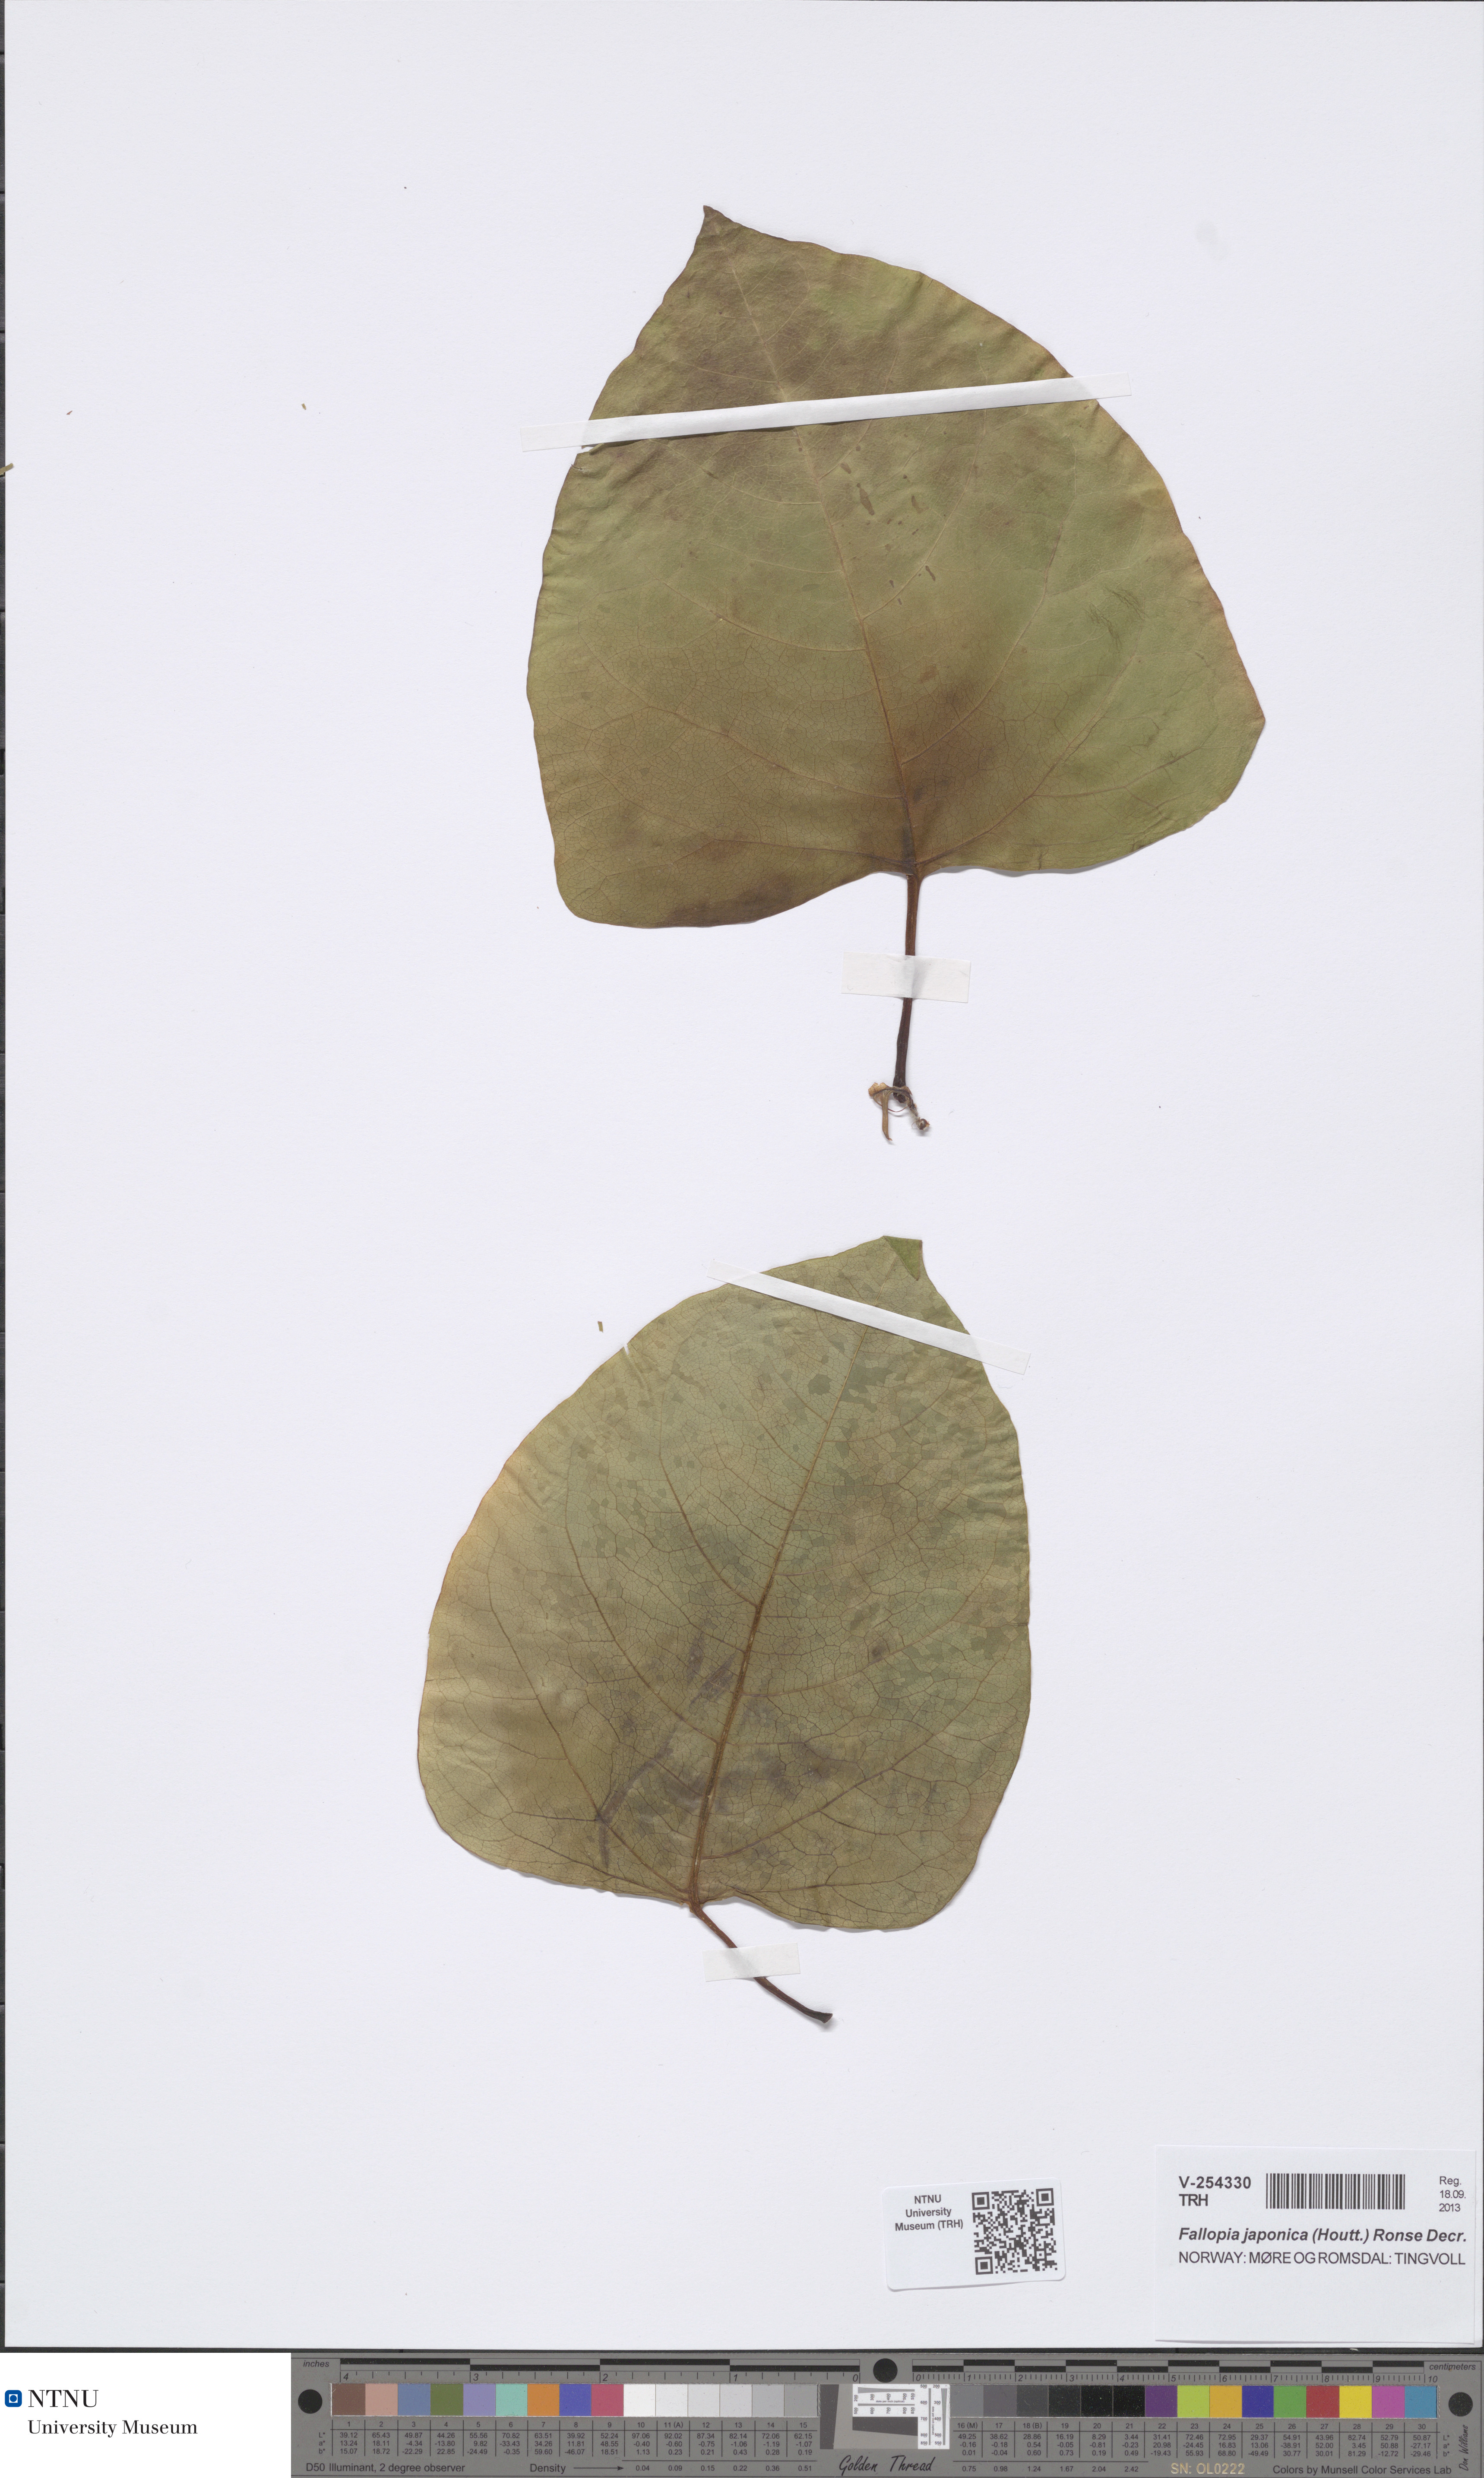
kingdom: Plantae
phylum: Tracheophyta
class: Magnoliopsida
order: Caryophyllales
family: Polygonaceae
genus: Reynoutria
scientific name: Reynoutria bohemica
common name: Bohemian knotweed
